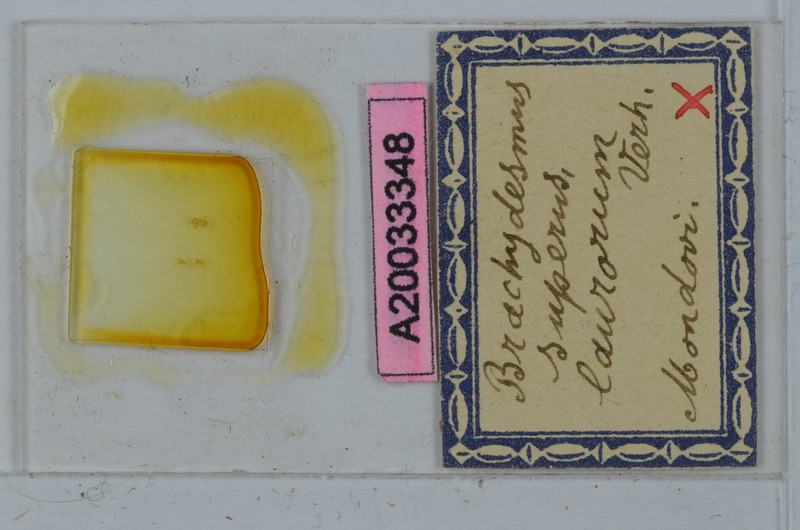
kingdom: Animalia
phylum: Arthropoda
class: Diplopoda
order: Polydesmida
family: Polydesmidae
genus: Brachydesmus
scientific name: Brachydesmus superus
